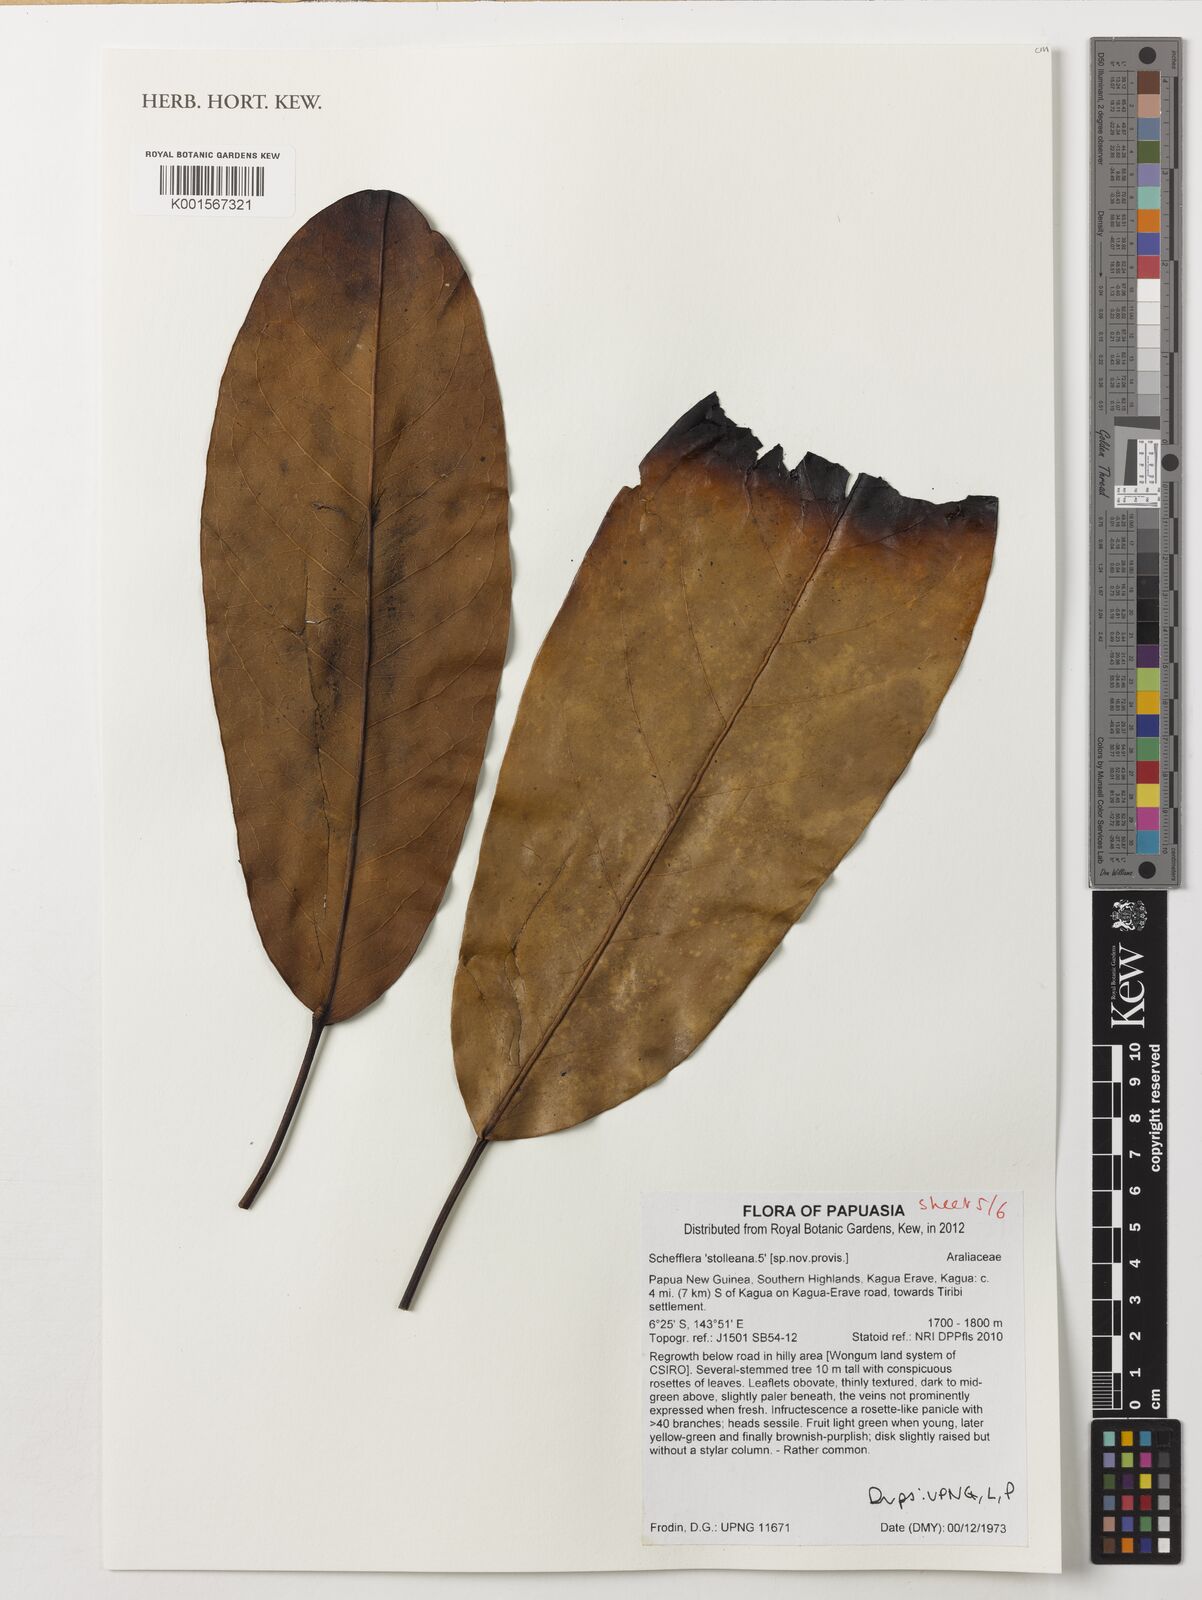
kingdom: Plantae
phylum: Tracheophyta
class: Magnoliopsida
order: Apiales
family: Araliaceae
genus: Heptapleurum
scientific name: Heptapleurum stolleanum
